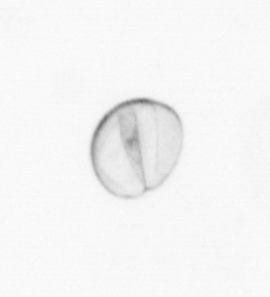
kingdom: Chromista
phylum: Ochrophyta
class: Bacillariophyceae
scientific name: Bacillariophyceae
